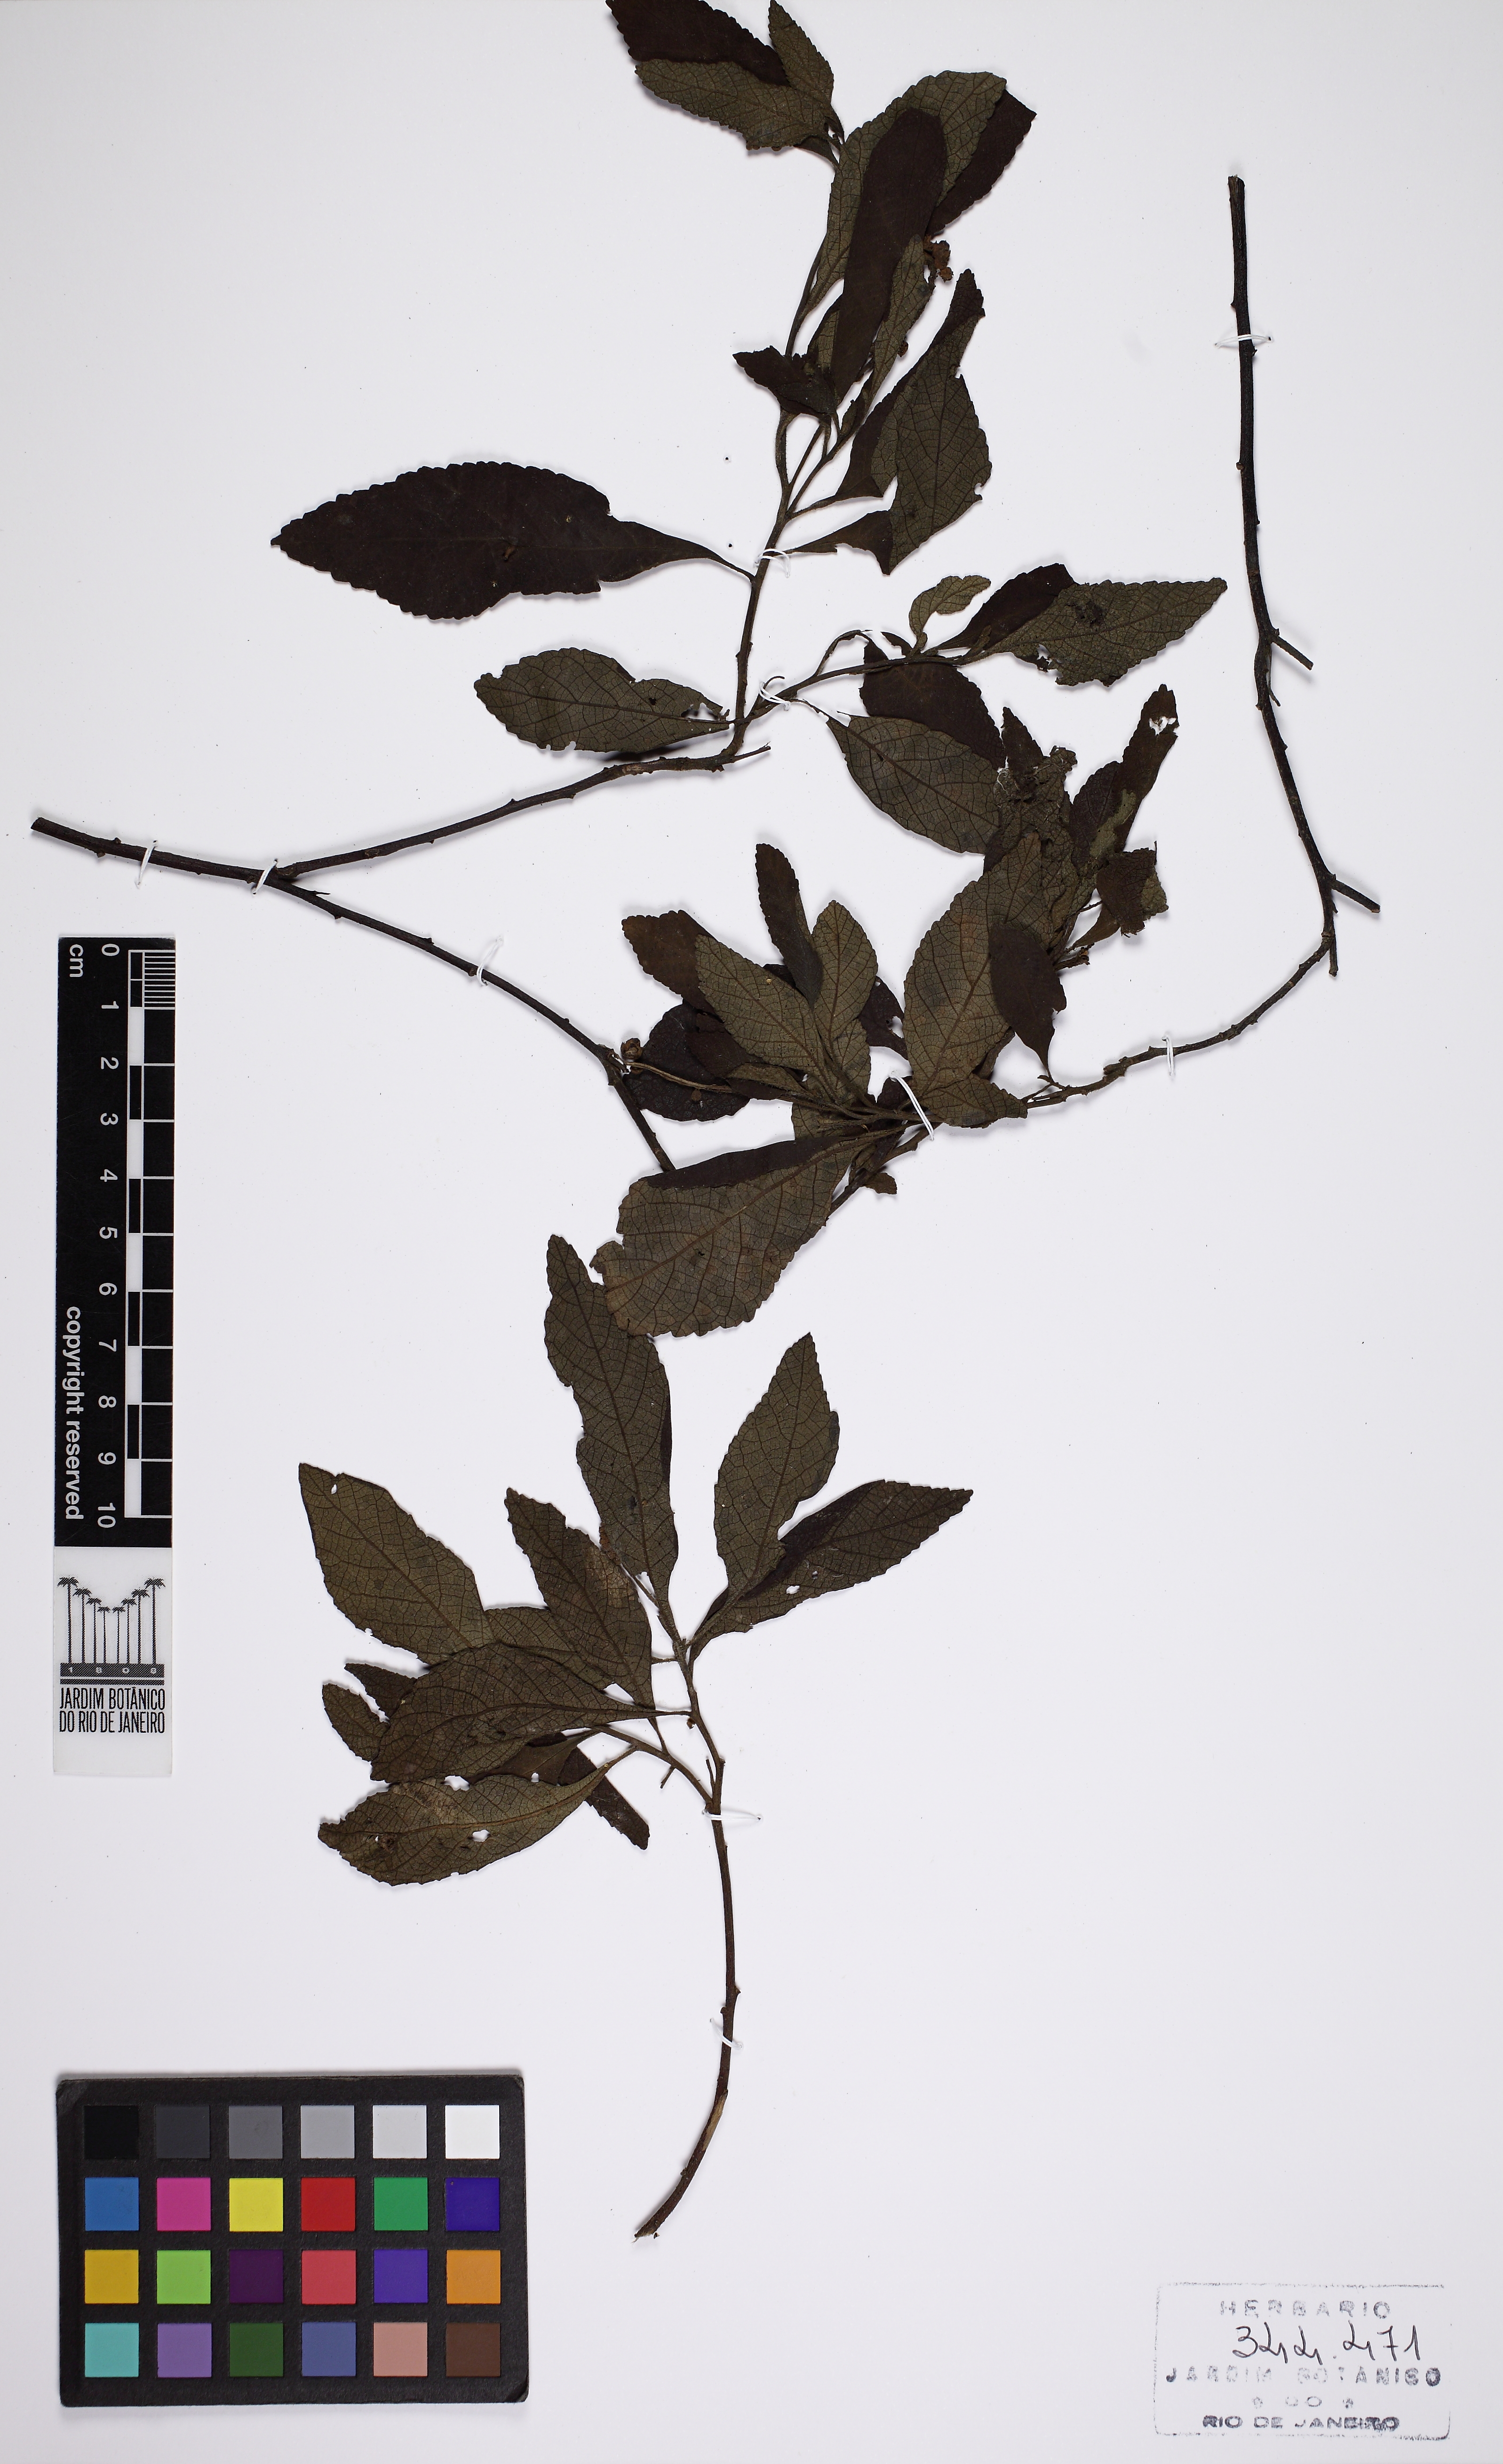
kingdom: Plantae
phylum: Tracheophyta
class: Magnoliopsida
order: Boraginales
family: Cordiaceae
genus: Varronia
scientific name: Varronia curassavica
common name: Black sage
